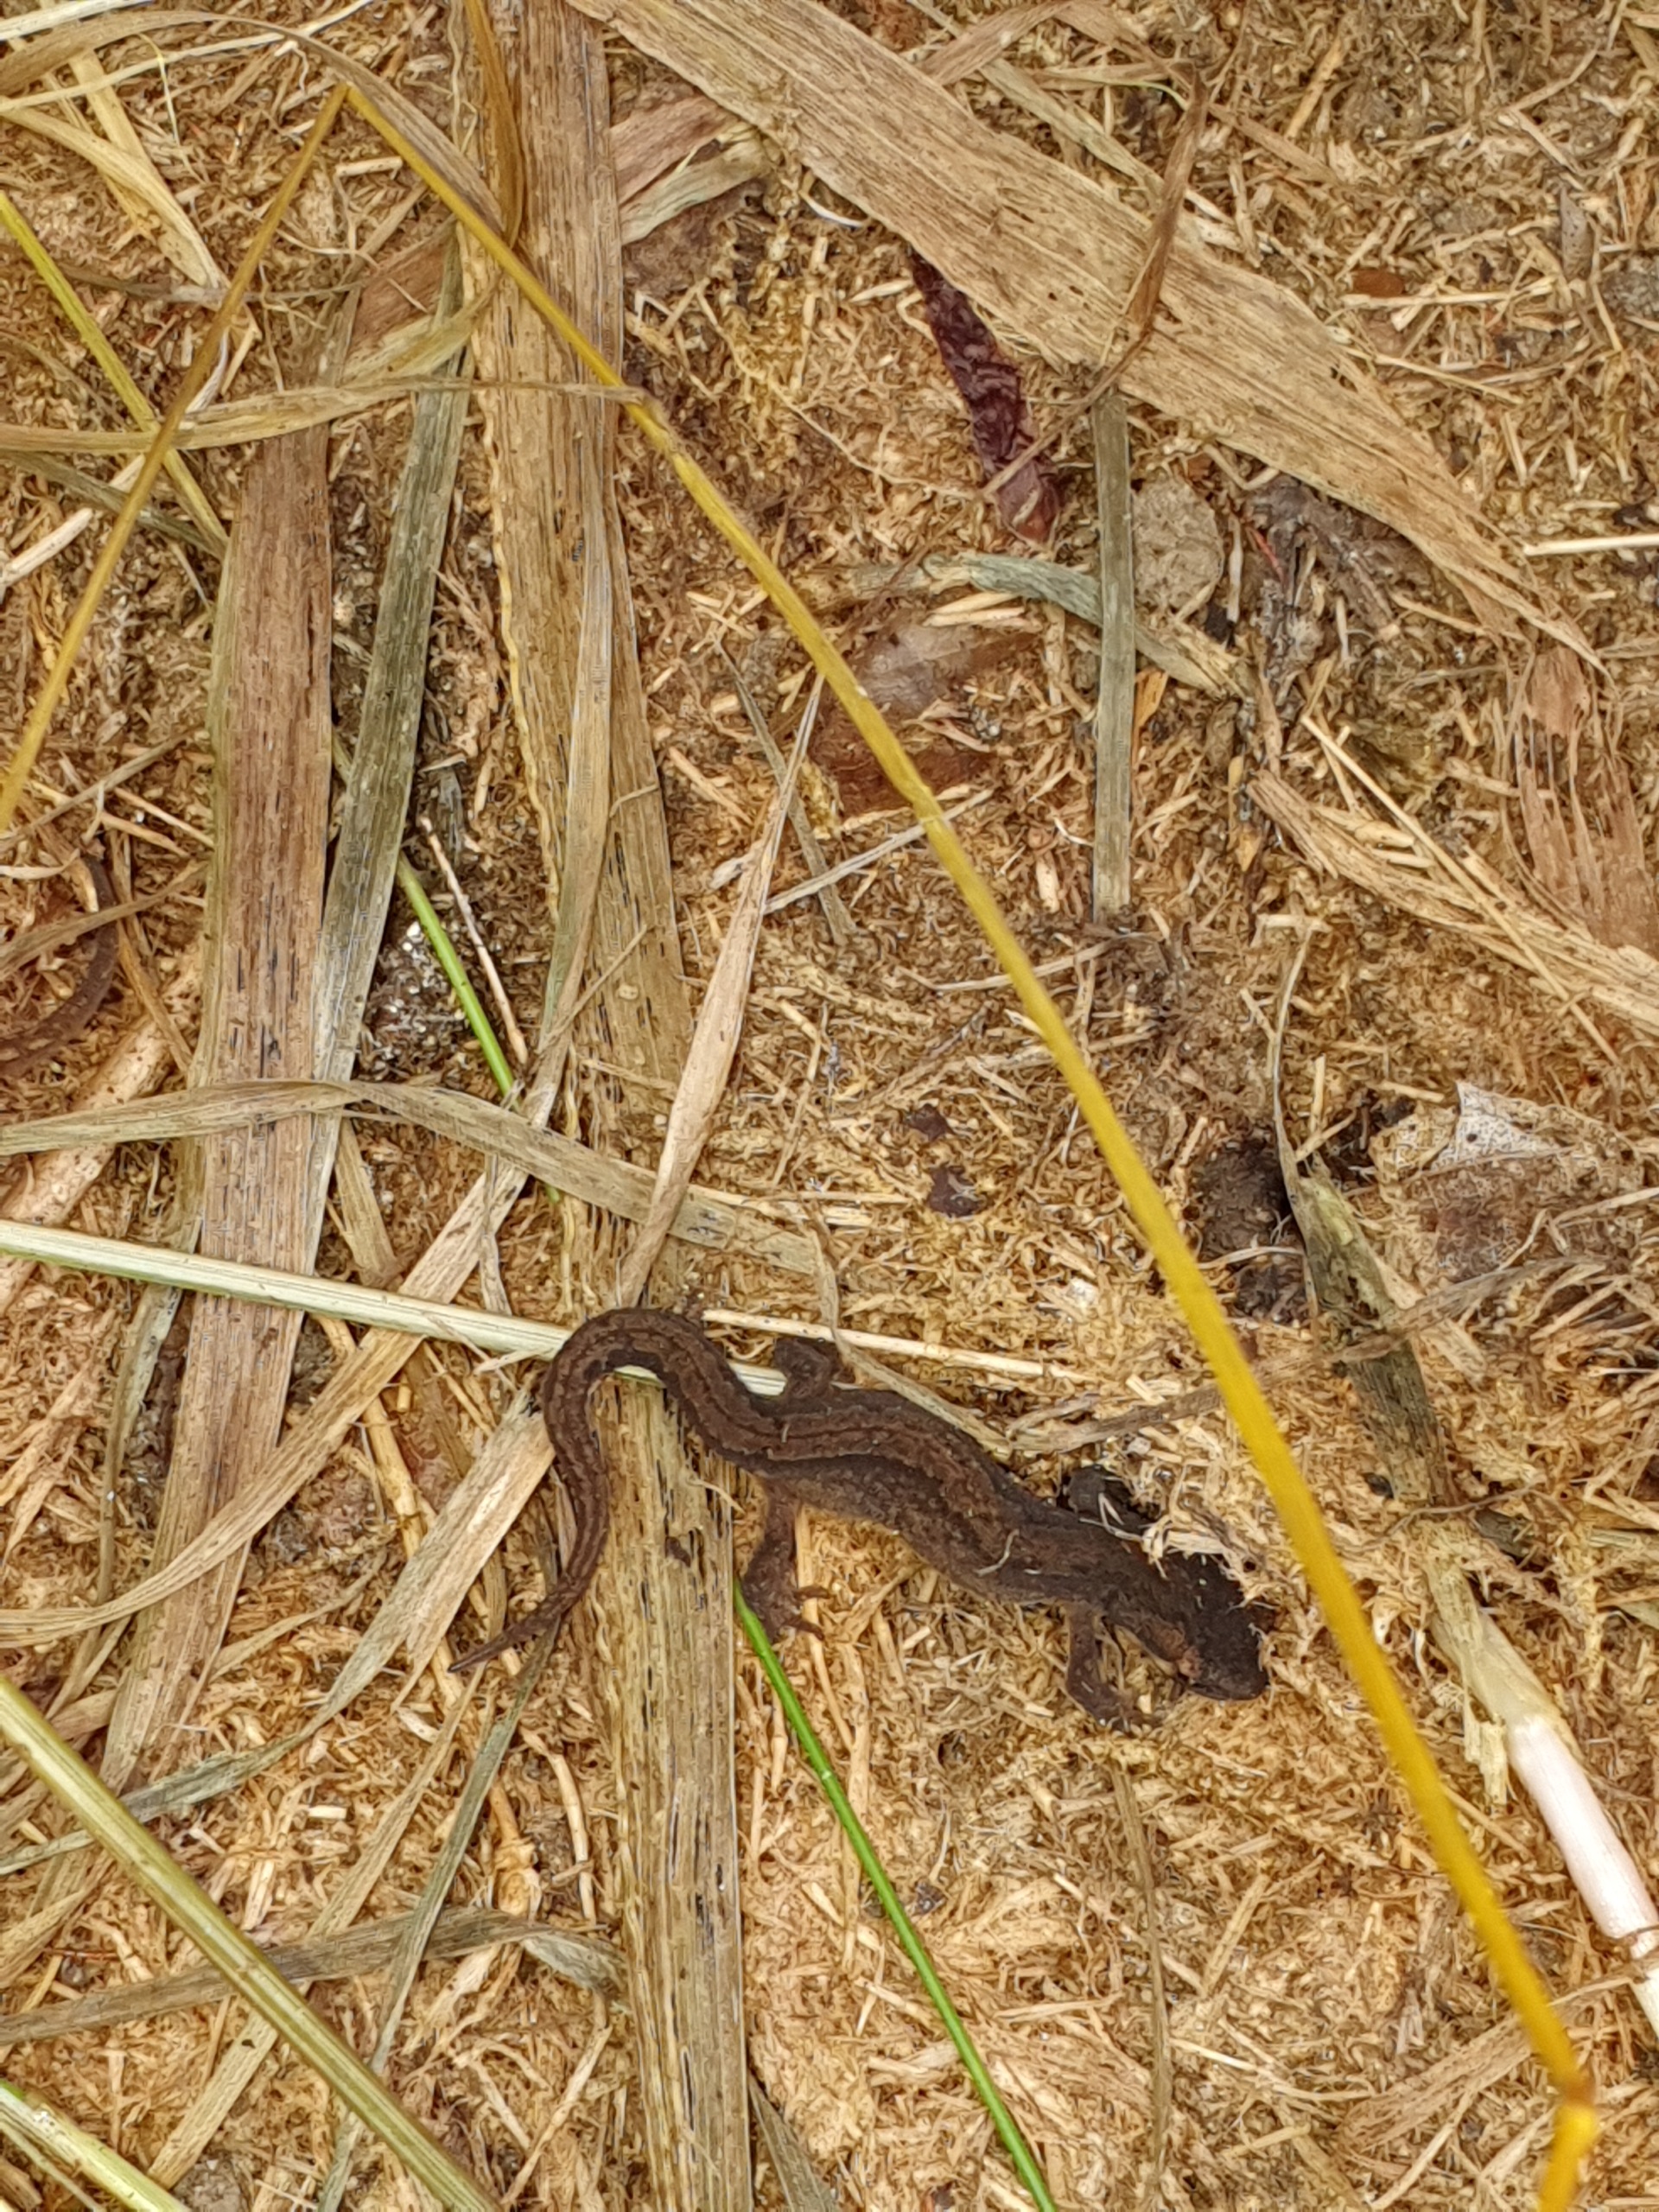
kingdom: Animalia
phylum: Chordata
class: Amphibia
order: Caudata
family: Salamandridae
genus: Lissotriton
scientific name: Lissotriton vulgaris
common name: Lille vandsalamander
